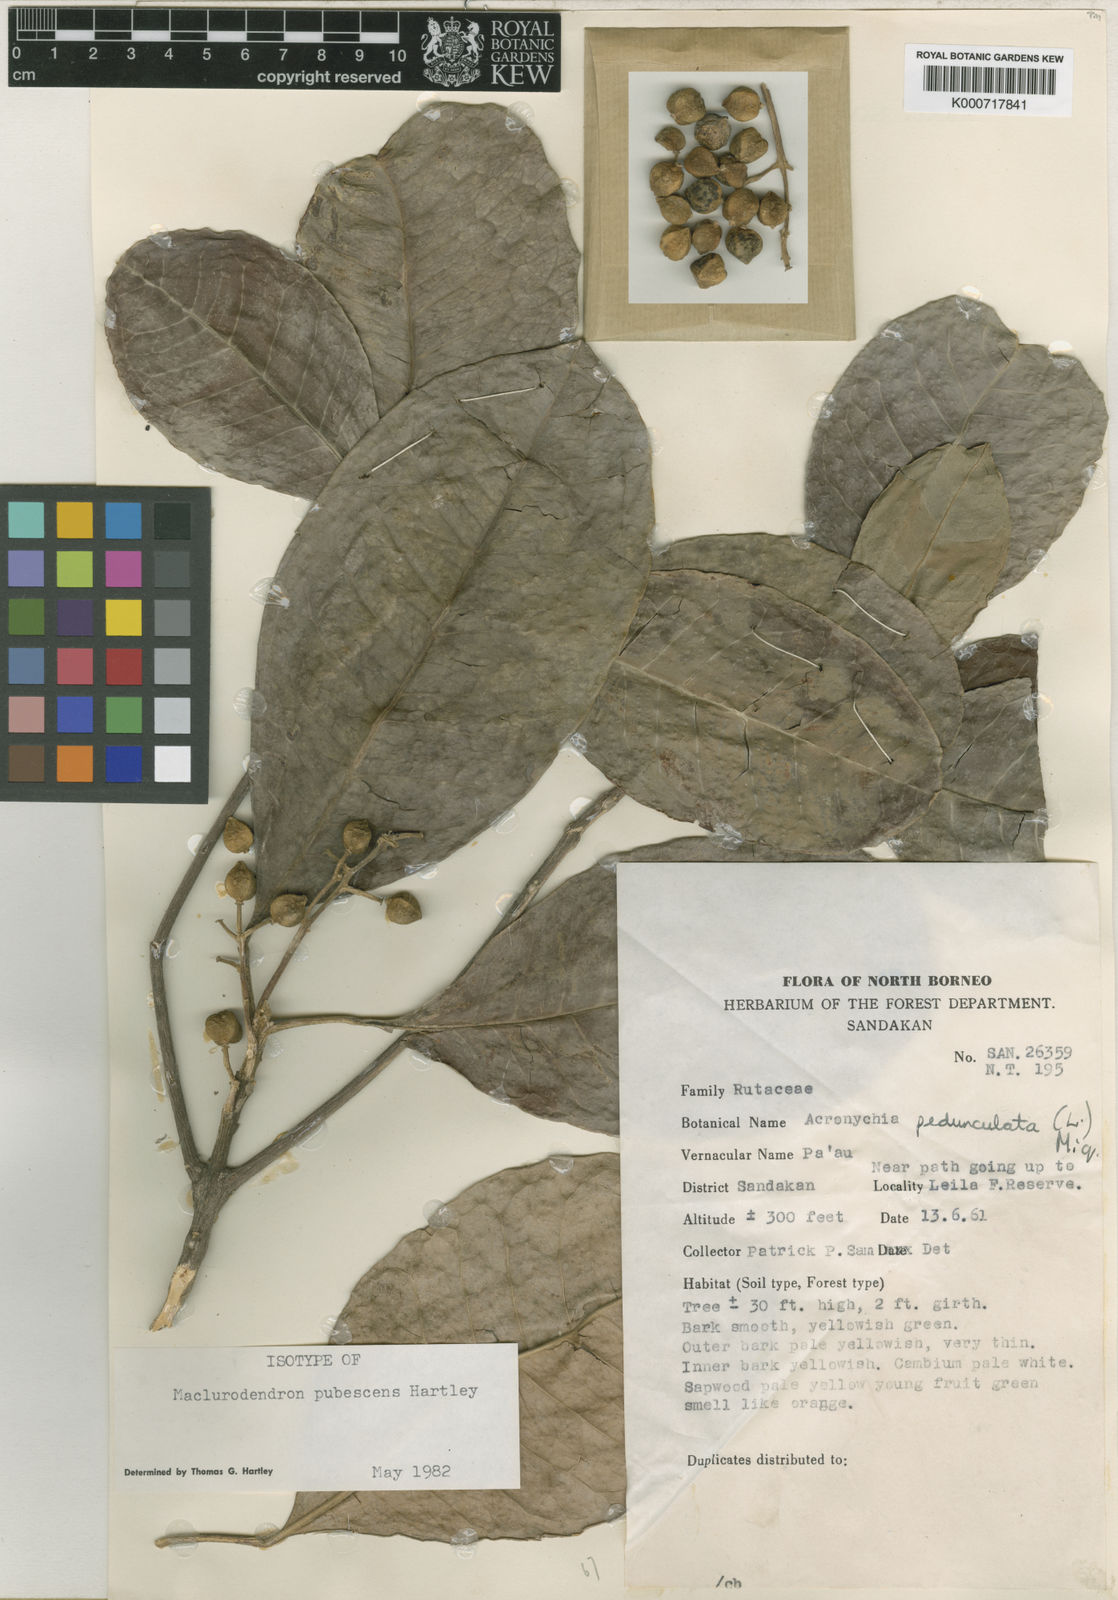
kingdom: Plantae
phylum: Tracheophyta
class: Magnoliopsida
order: Sapindales
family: Rutaceae
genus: Maclurodendron
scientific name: Maclurodendron pubescens
